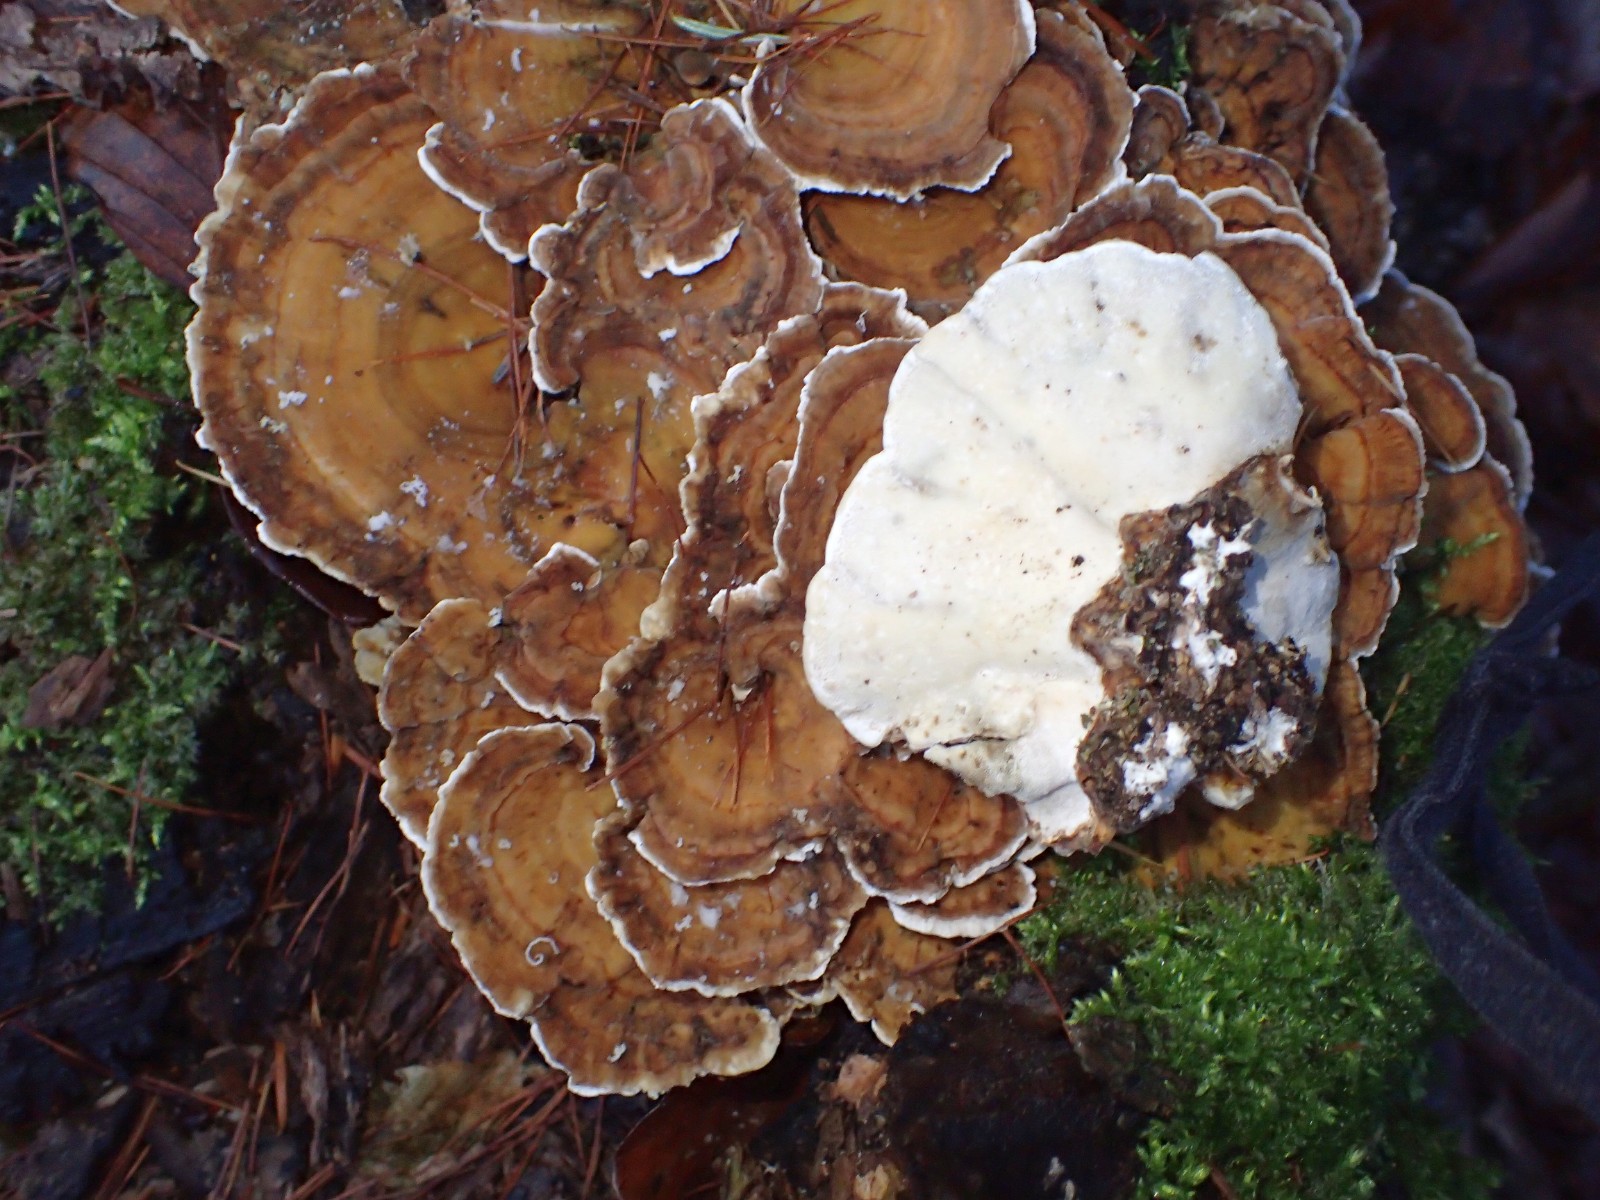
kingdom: Fungi
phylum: Basidiomycota
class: Agaricomycetes
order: Polyporales
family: Polyporaceae
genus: Trametes
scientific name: Trametes ochracea
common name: bæltet læderporesvamp
